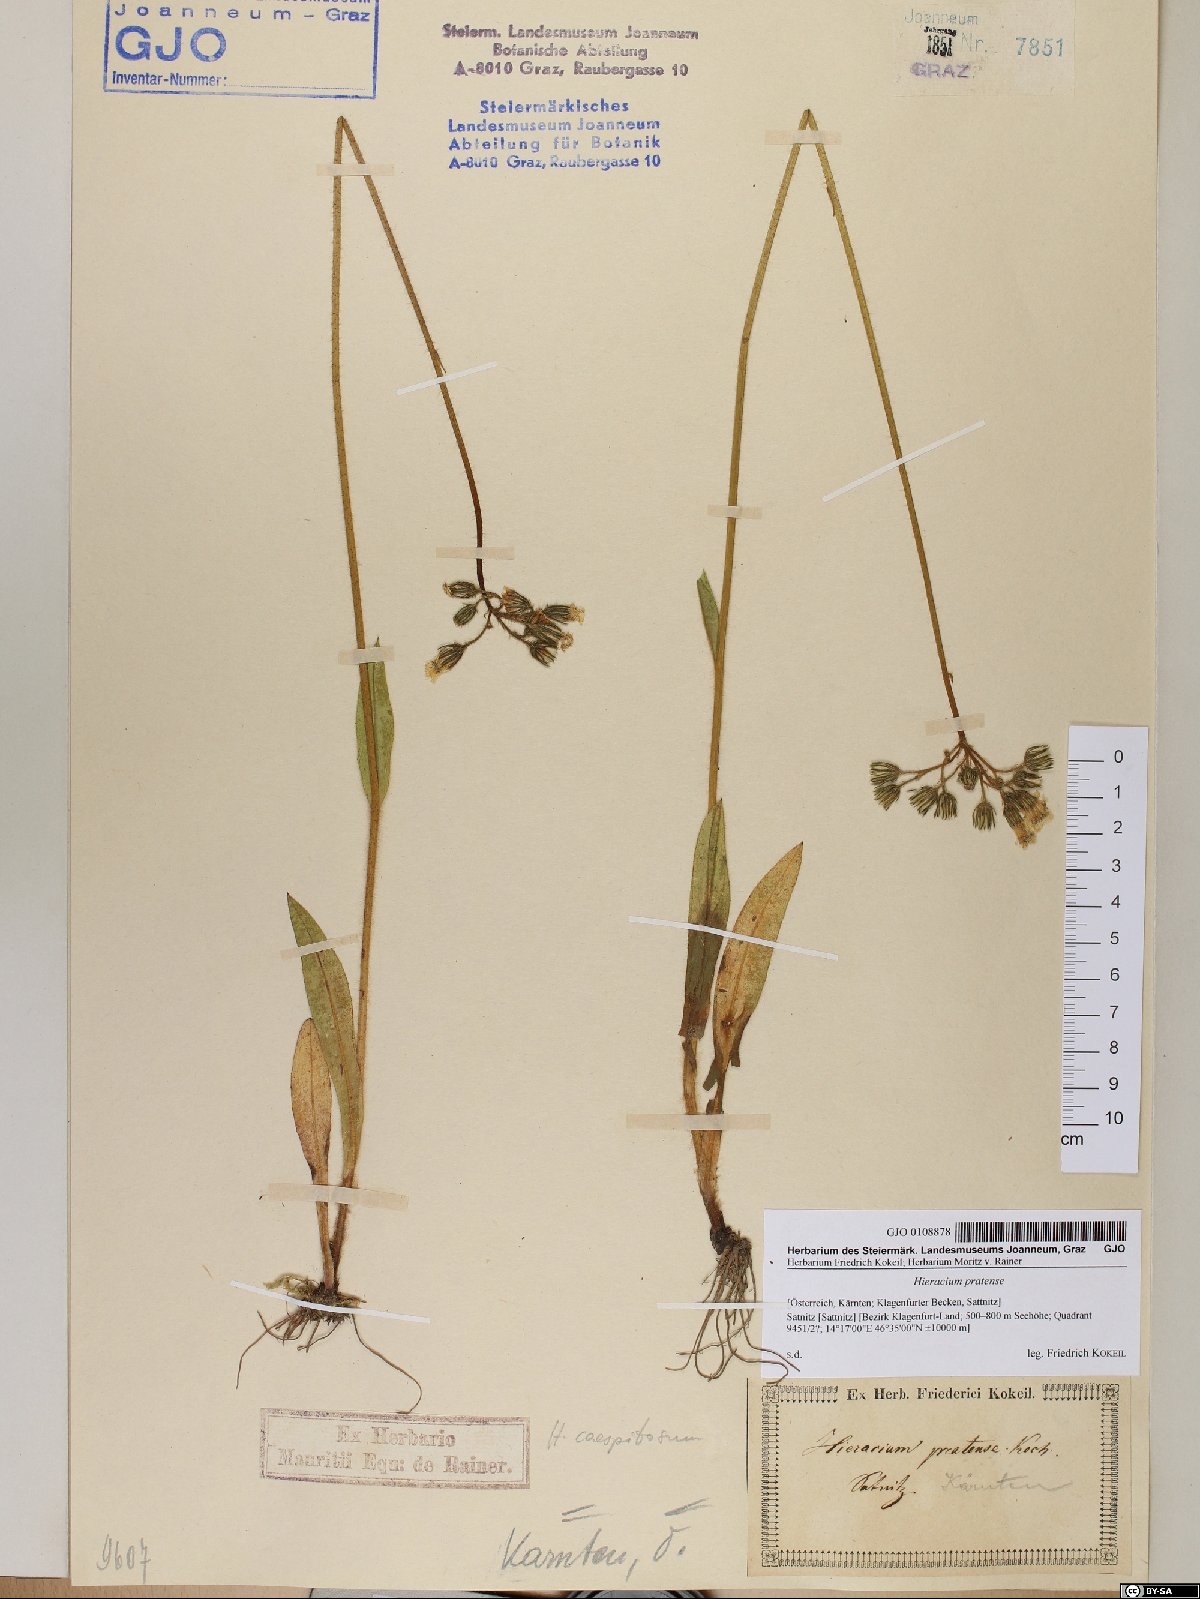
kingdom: Plantae
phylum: Tracheophyta
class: Magnoliopsida
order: Asterales
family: Asteraceae
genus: Pilosella
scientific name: Pilosella caespitosa
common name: Yellow fox-and-cubs
